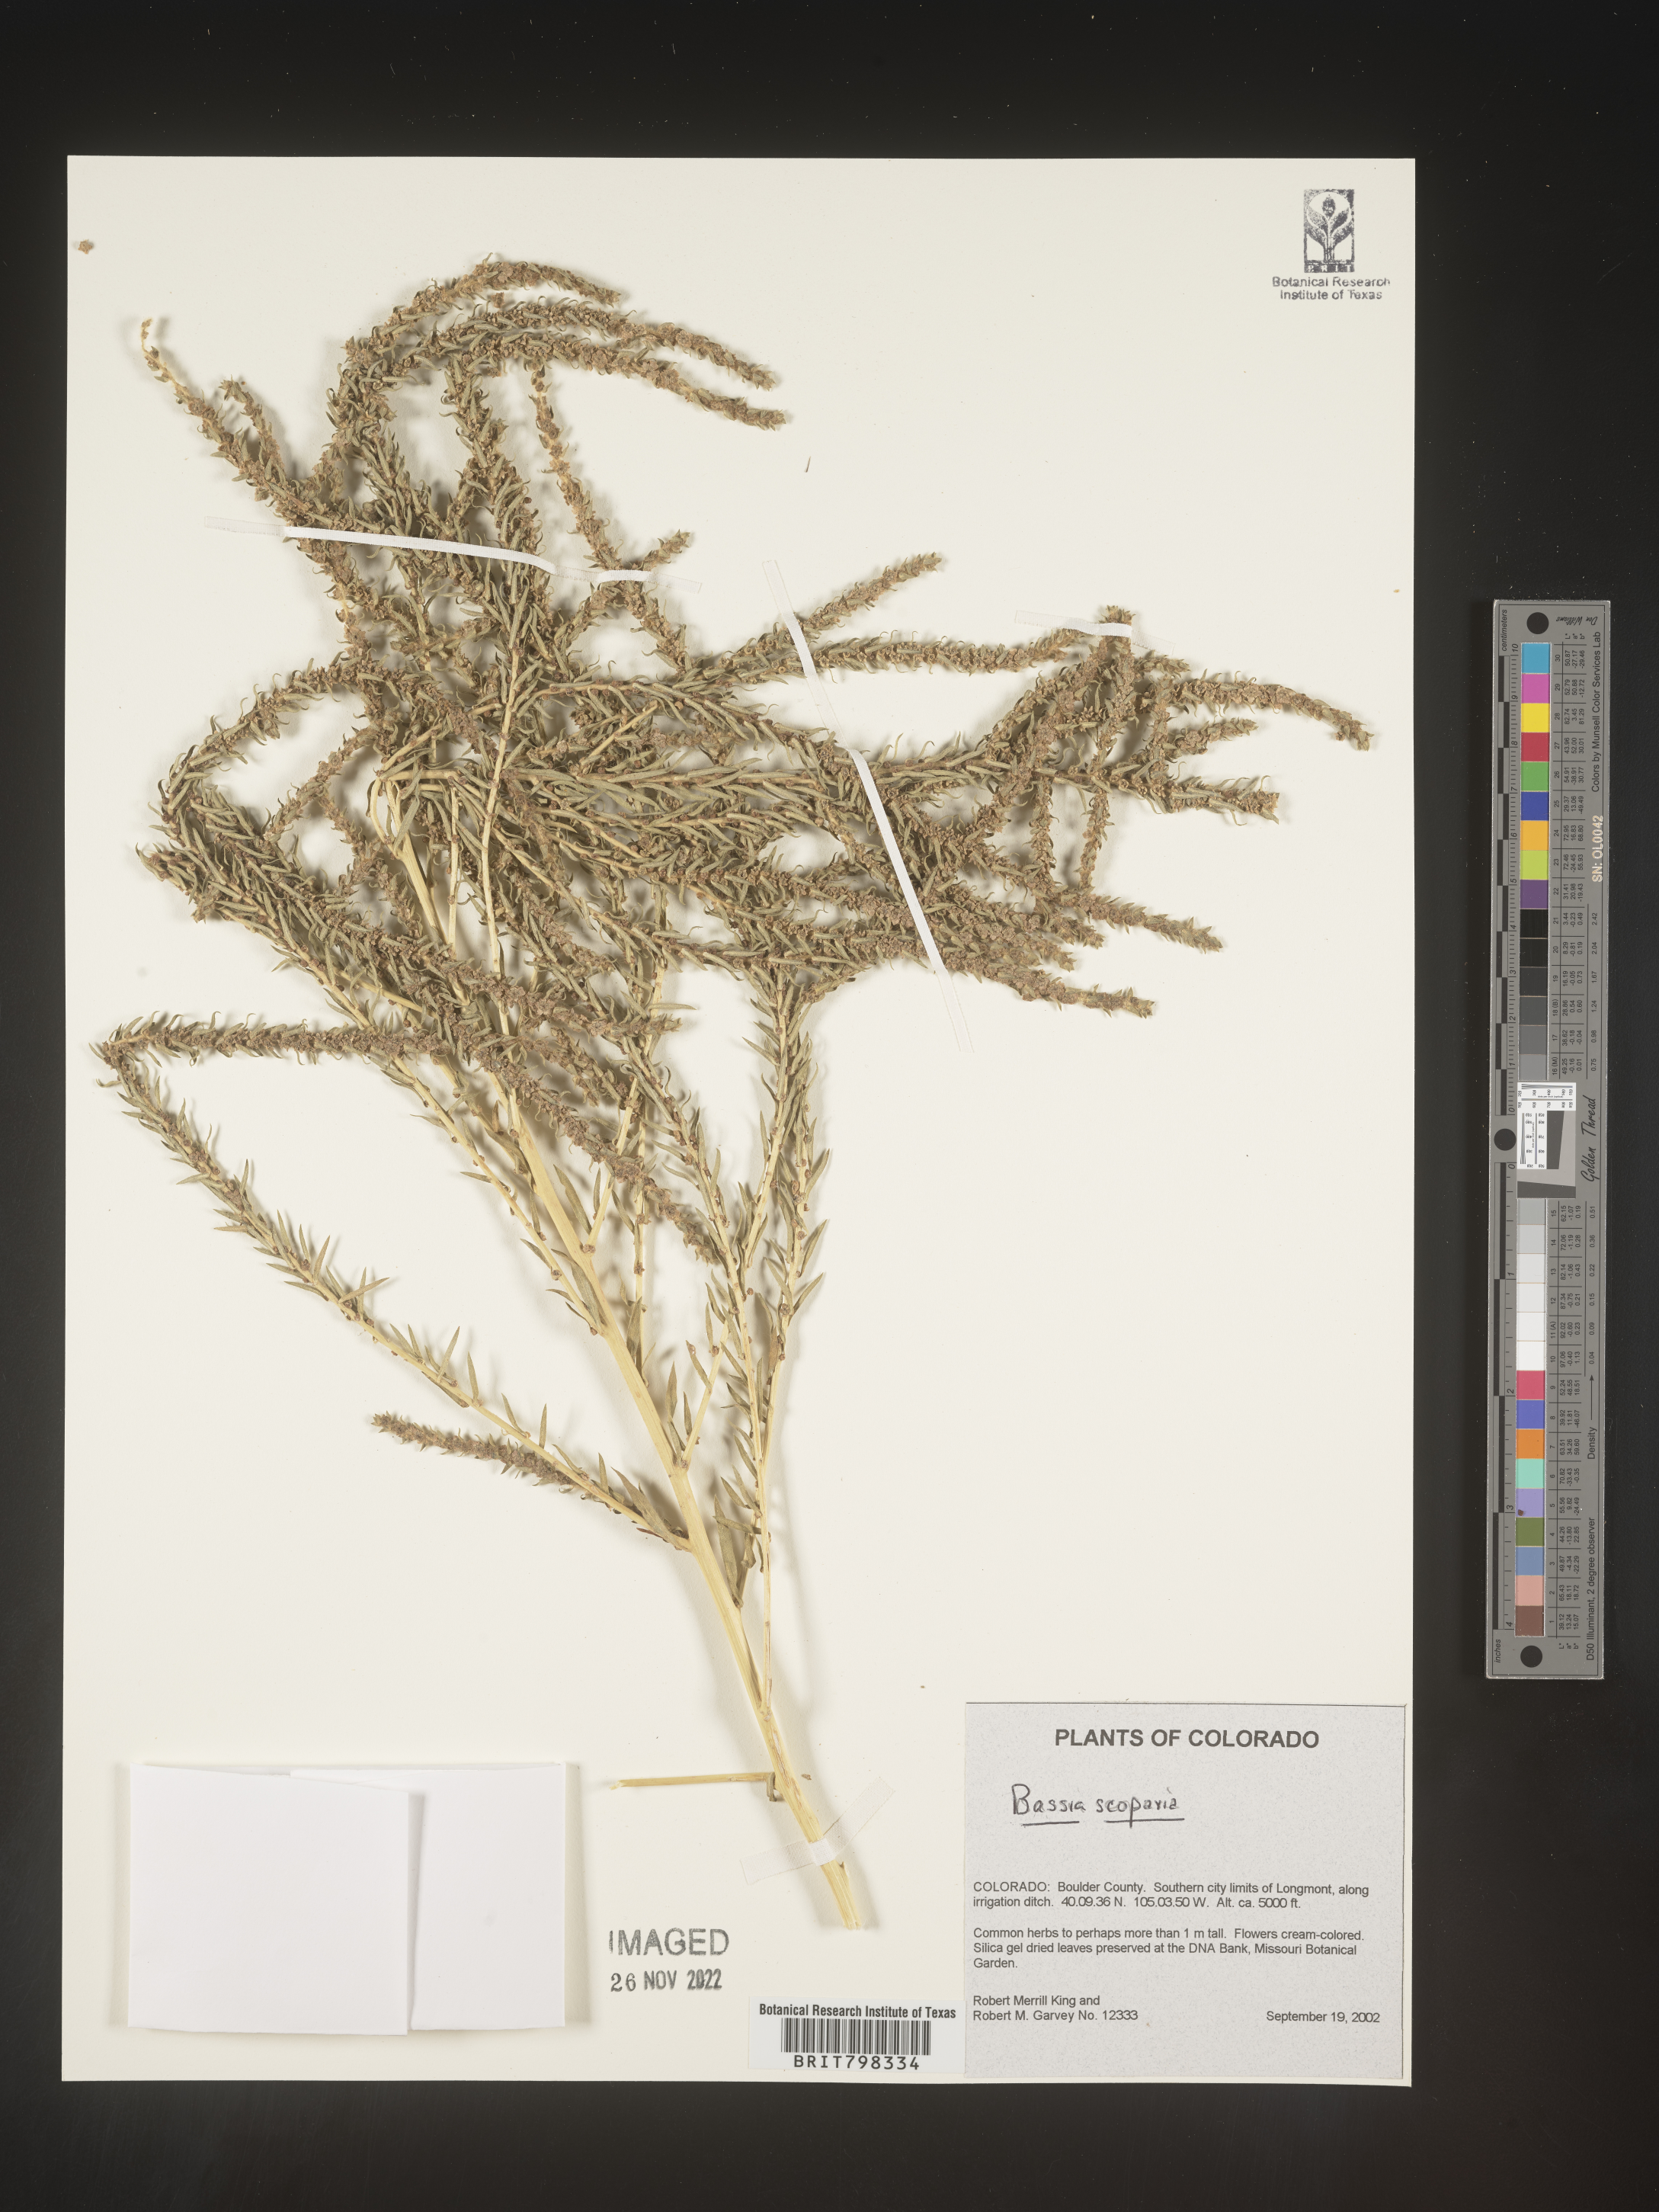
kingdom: Plantae
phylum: Tracheophyta
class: Magnoliopsida
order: Caryophyllales
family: Amaranthaceae
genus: Bassia
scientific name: Bassia
